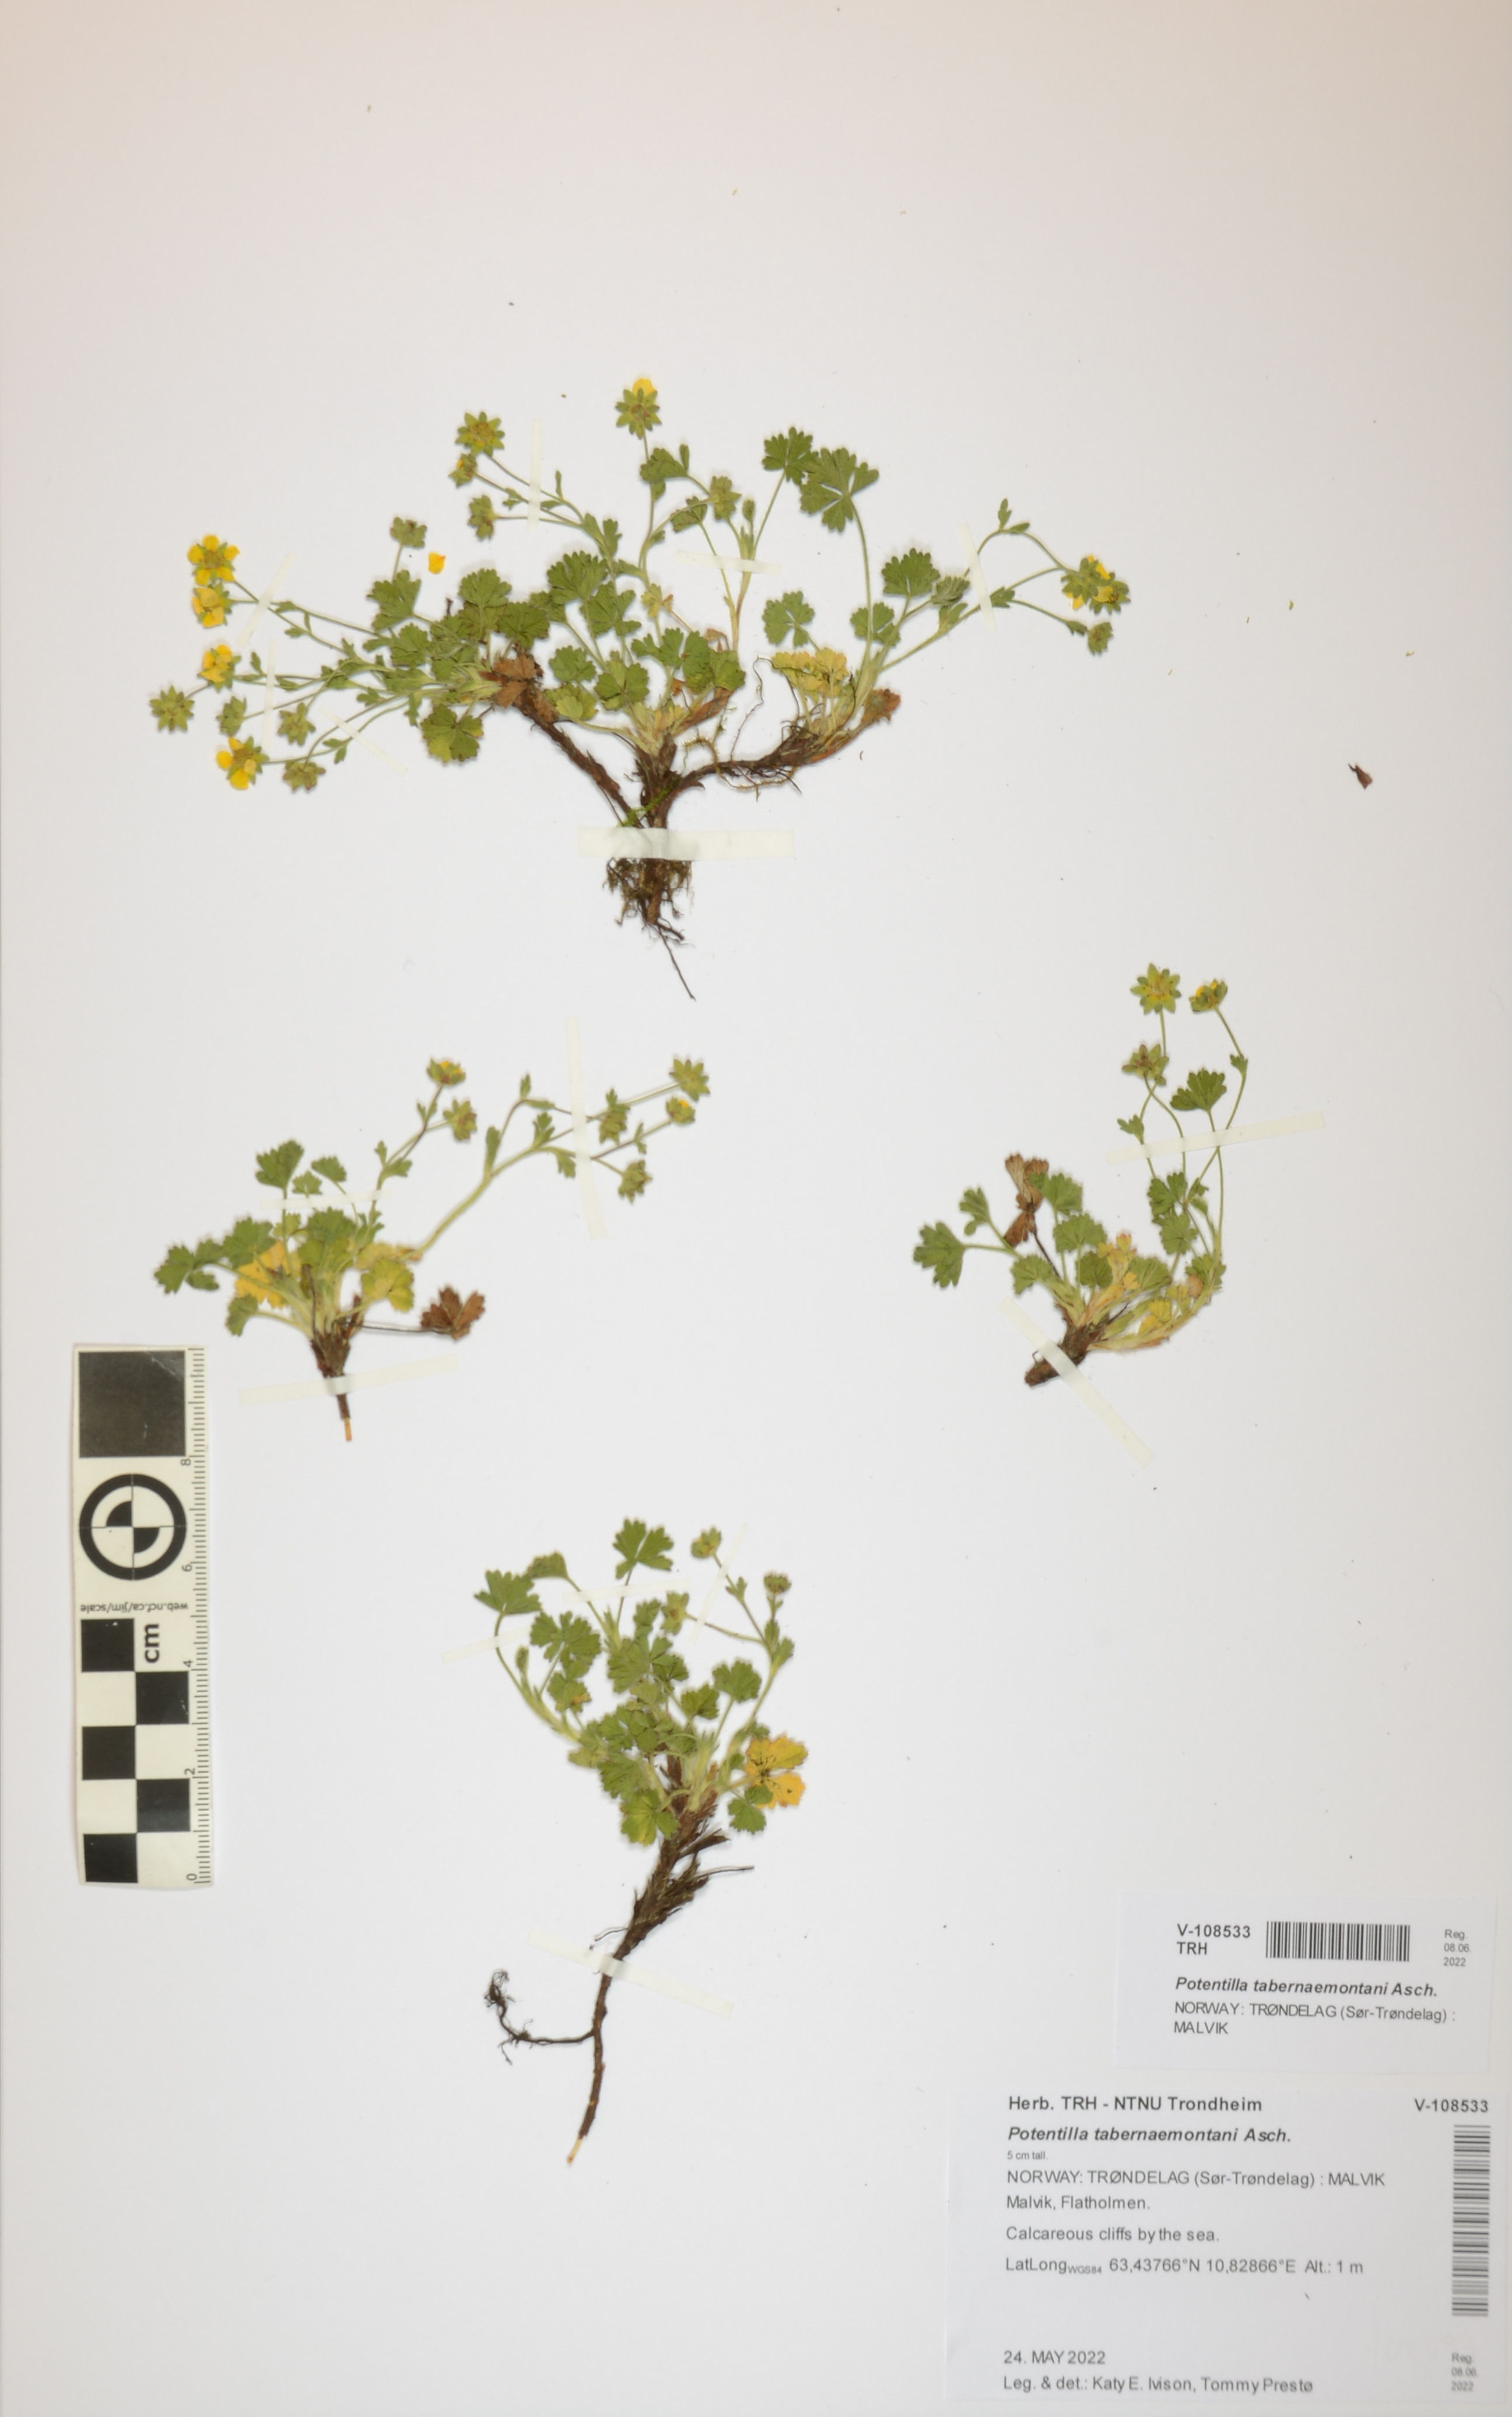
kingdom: Plantae
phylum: Tracheophyta
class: Magnoliopsida
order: Rosales
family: Rosaceae
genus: Potentilla
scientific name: Potentilla verna
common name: Spring cinquefoil
